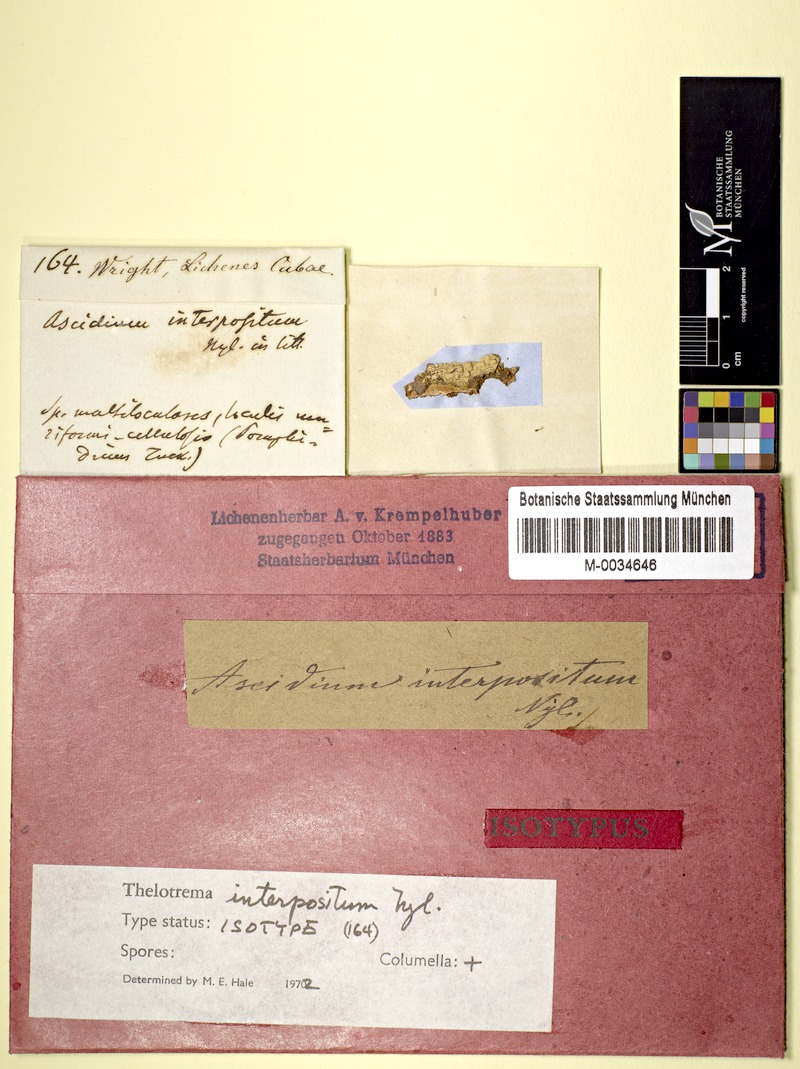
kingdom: Fungi
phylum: Ascomycota
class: Lecanoromycetes
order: Ostropales
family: Graphidaceae
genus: Ocellularia
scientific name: Ocellularia interposita
